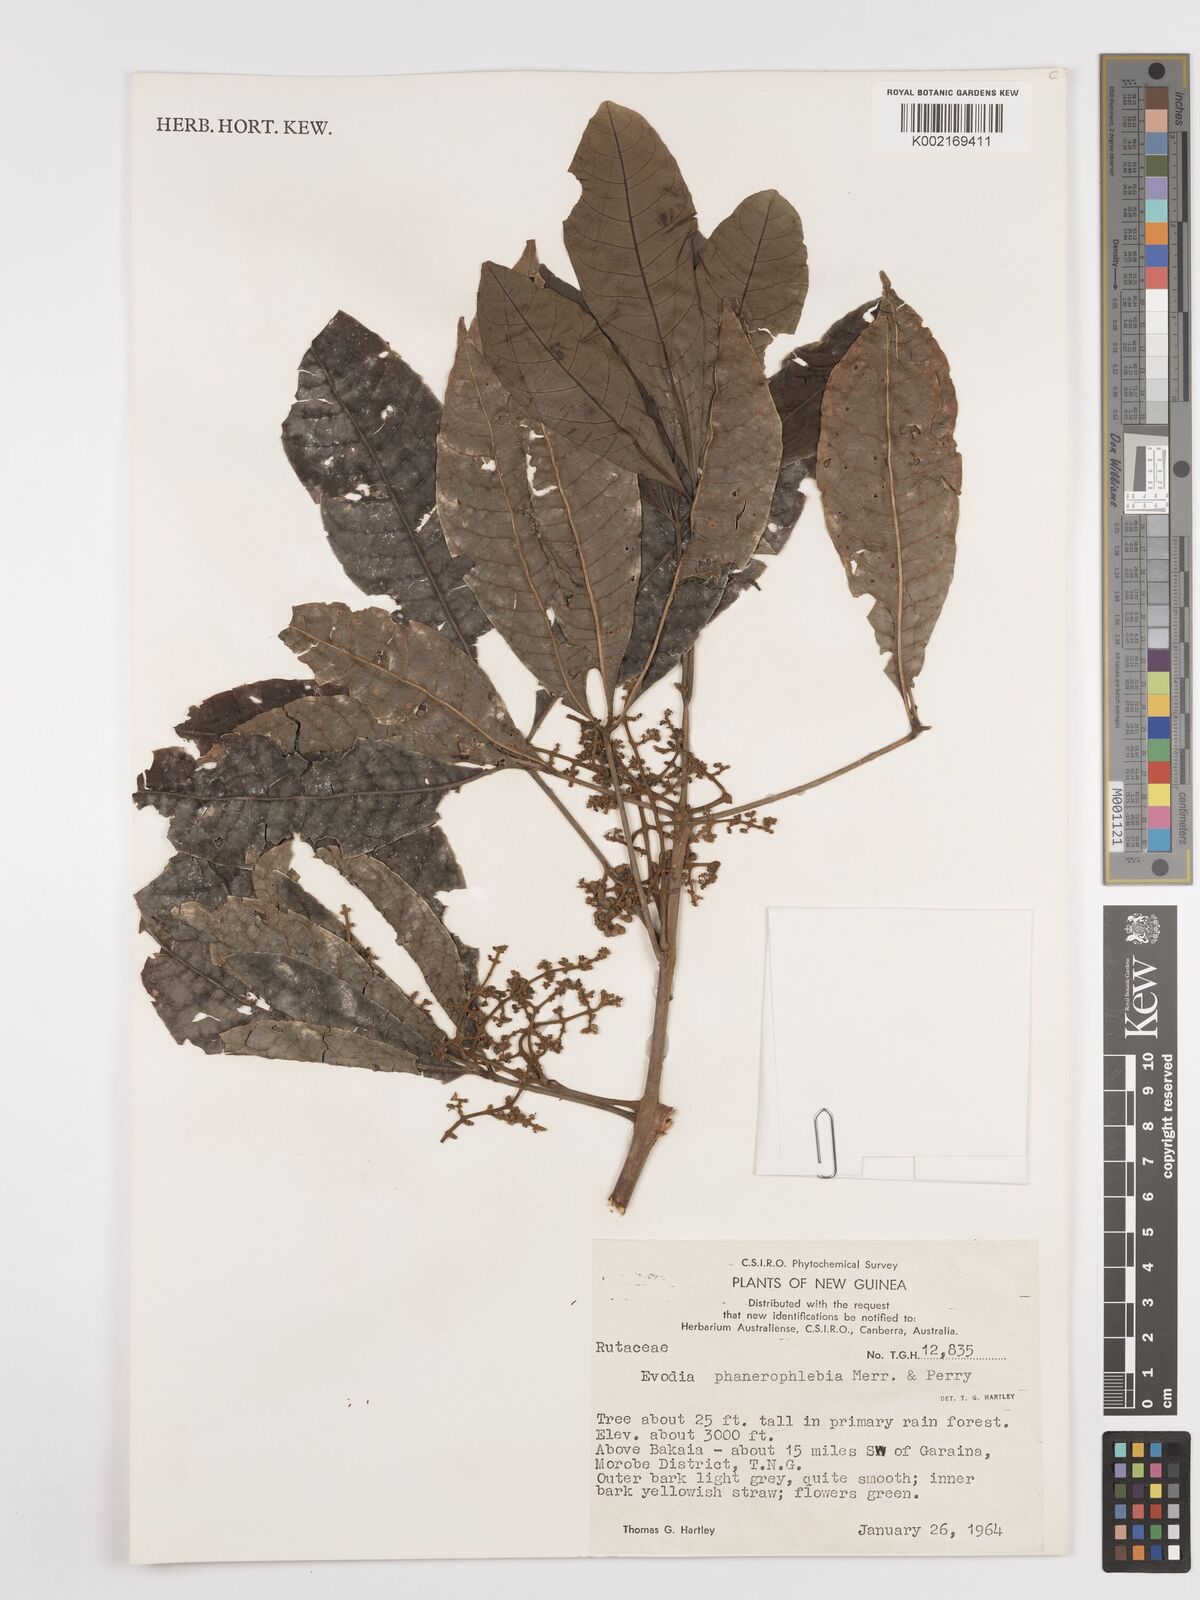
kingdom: Plantae
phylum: Tracheophyta
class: Magnoliopsida
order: Sapindales
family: Rutaceae
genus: Melicope
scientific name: Melicope phanerophlebia
